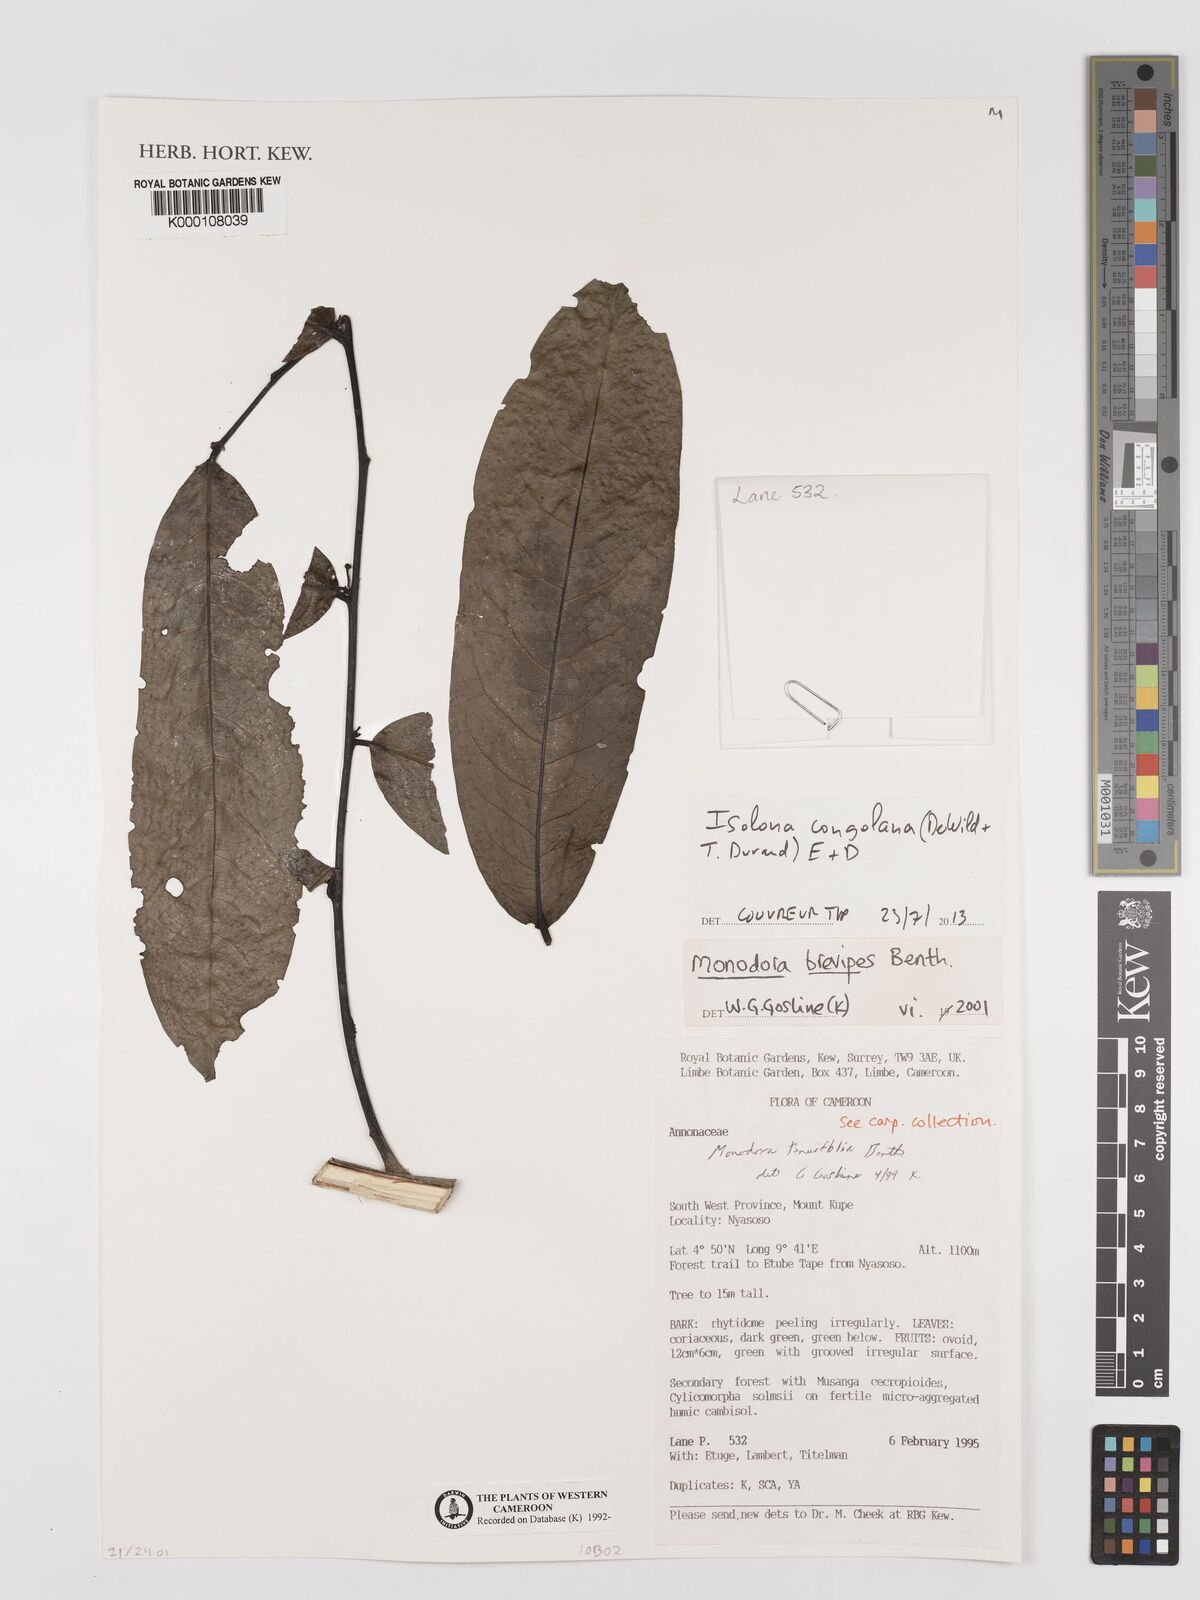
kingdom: Plantae
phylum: Tracheophyta
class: Magnoliopsida
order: Magnoliales
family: Annonaceae
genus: Monodora
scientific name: Monodora undulata
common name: Yellow-flower-nutmeg
